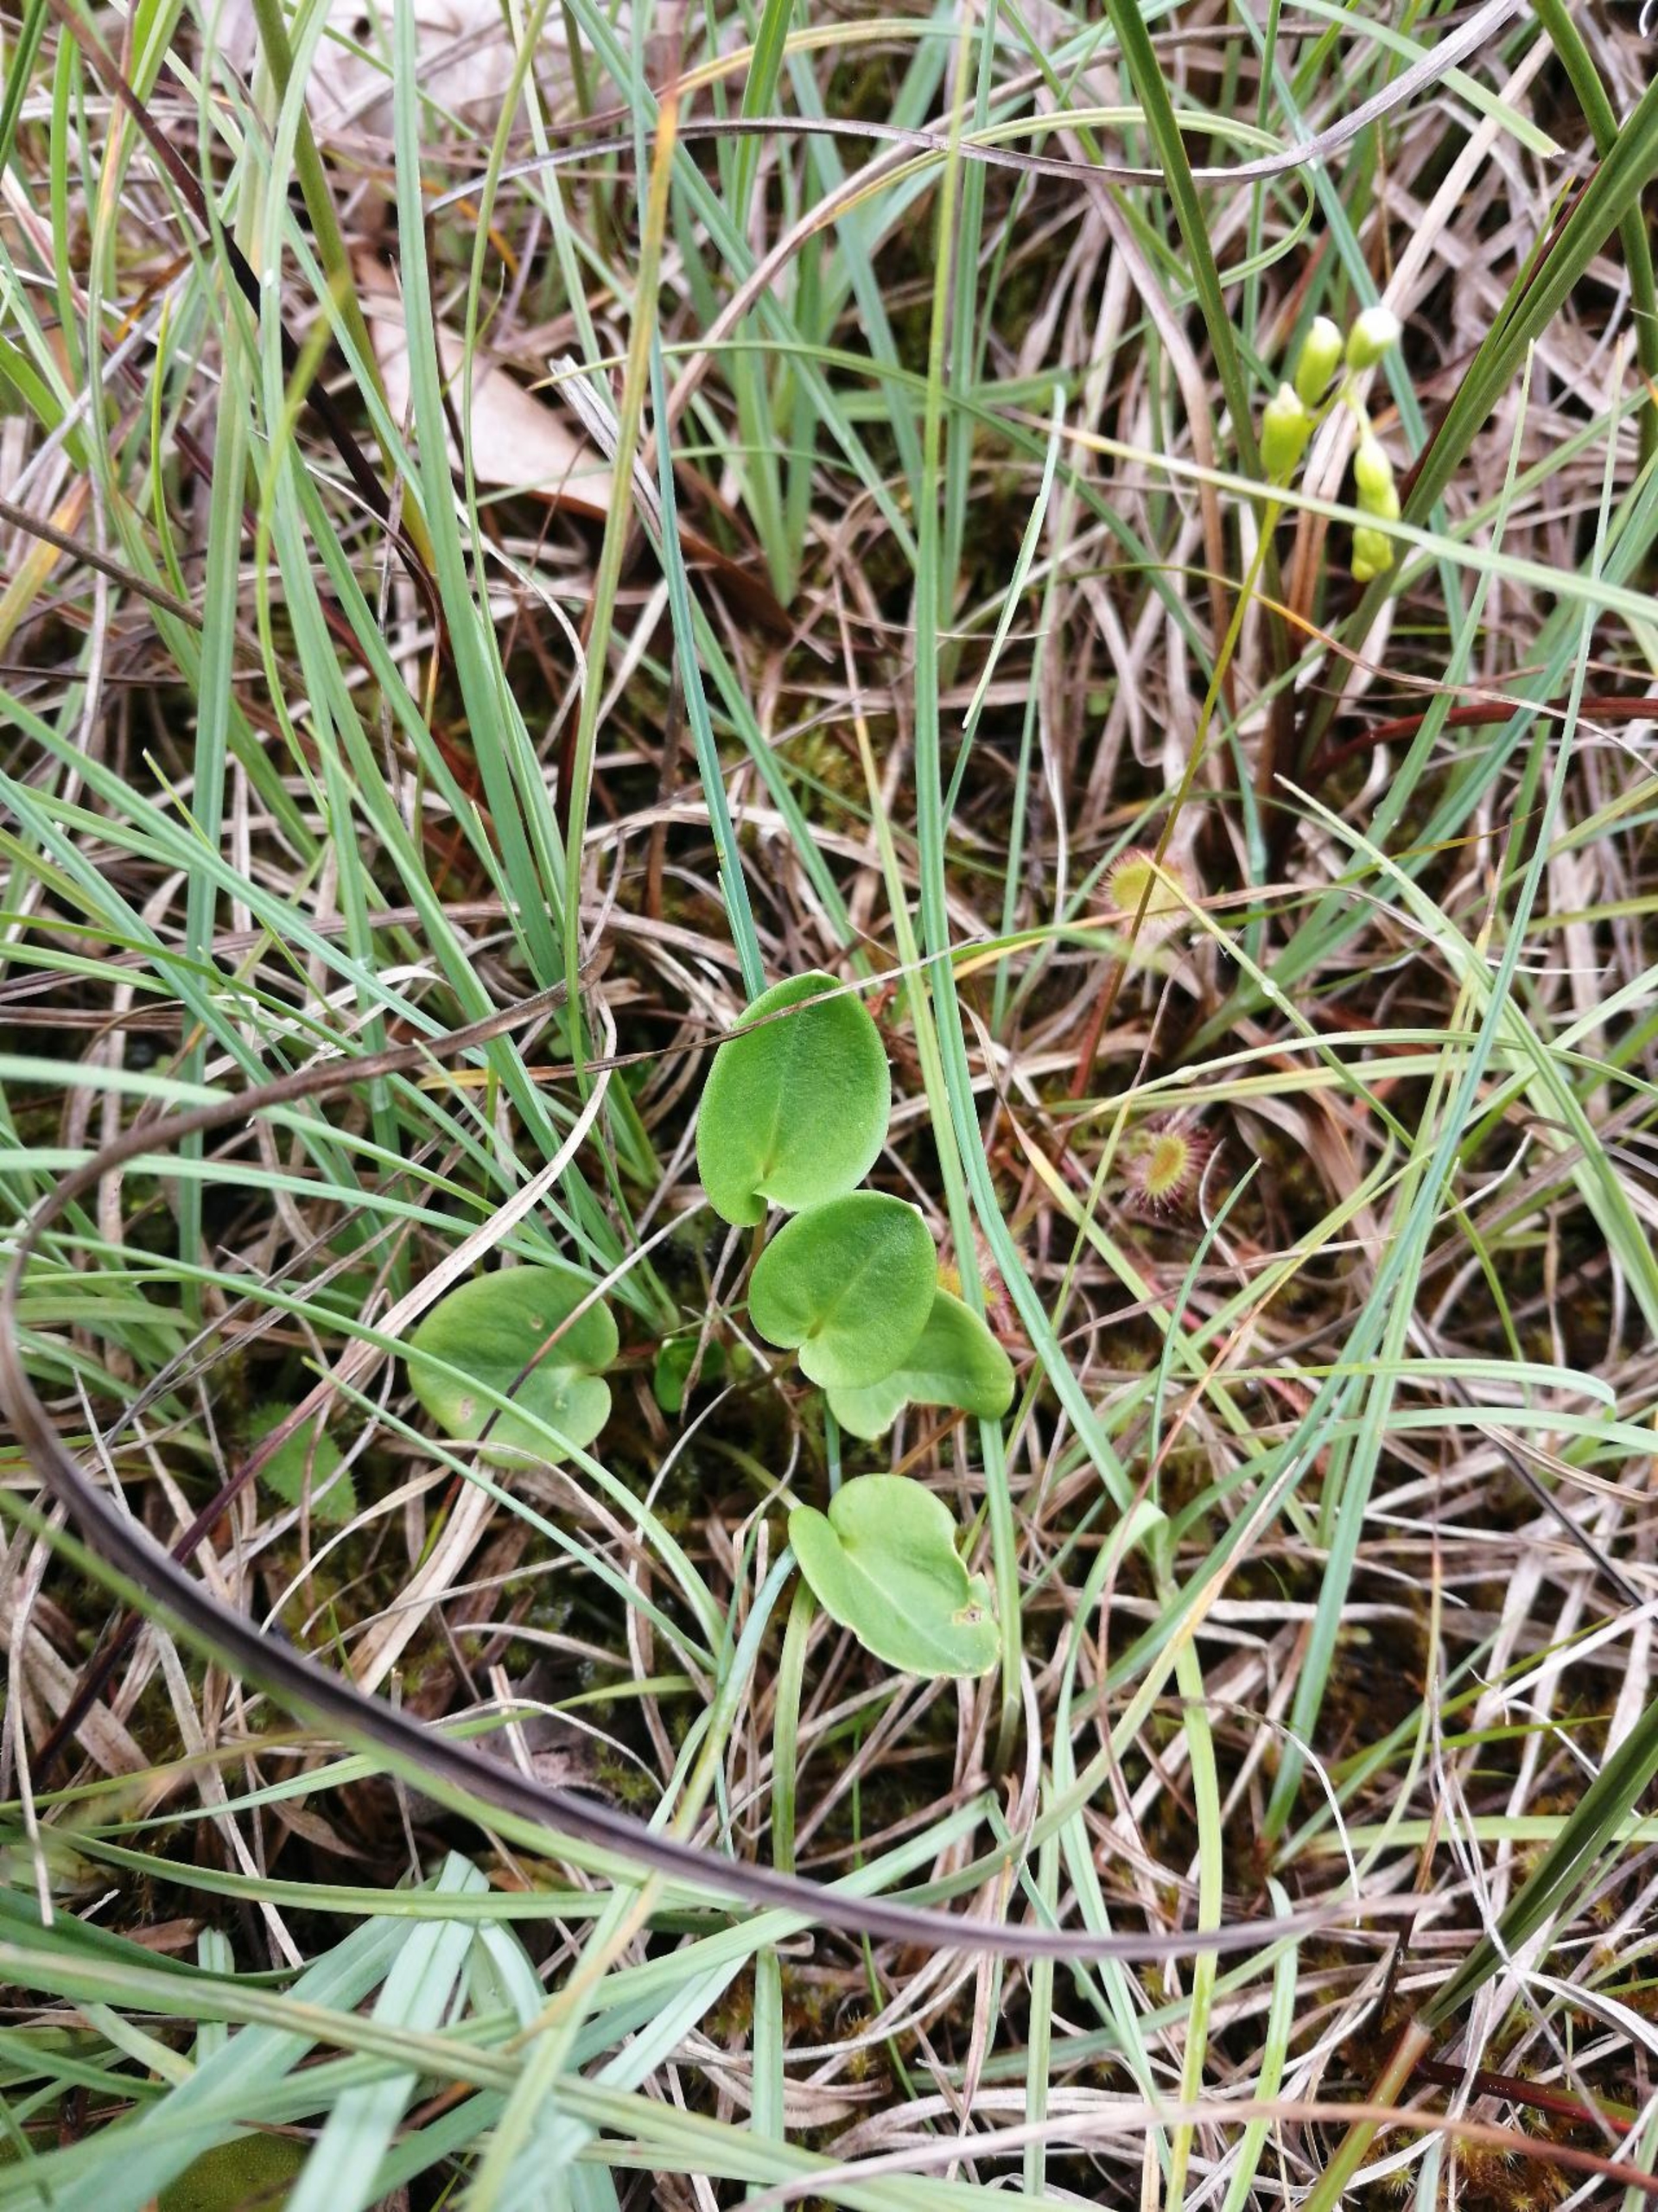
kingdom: Plantae
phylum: Tracheophyta
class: Magnoliopsida
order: Celastrales
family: Parnassiaceae
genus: Parnassia
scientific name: Parnassia palustris
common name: Leverurt
